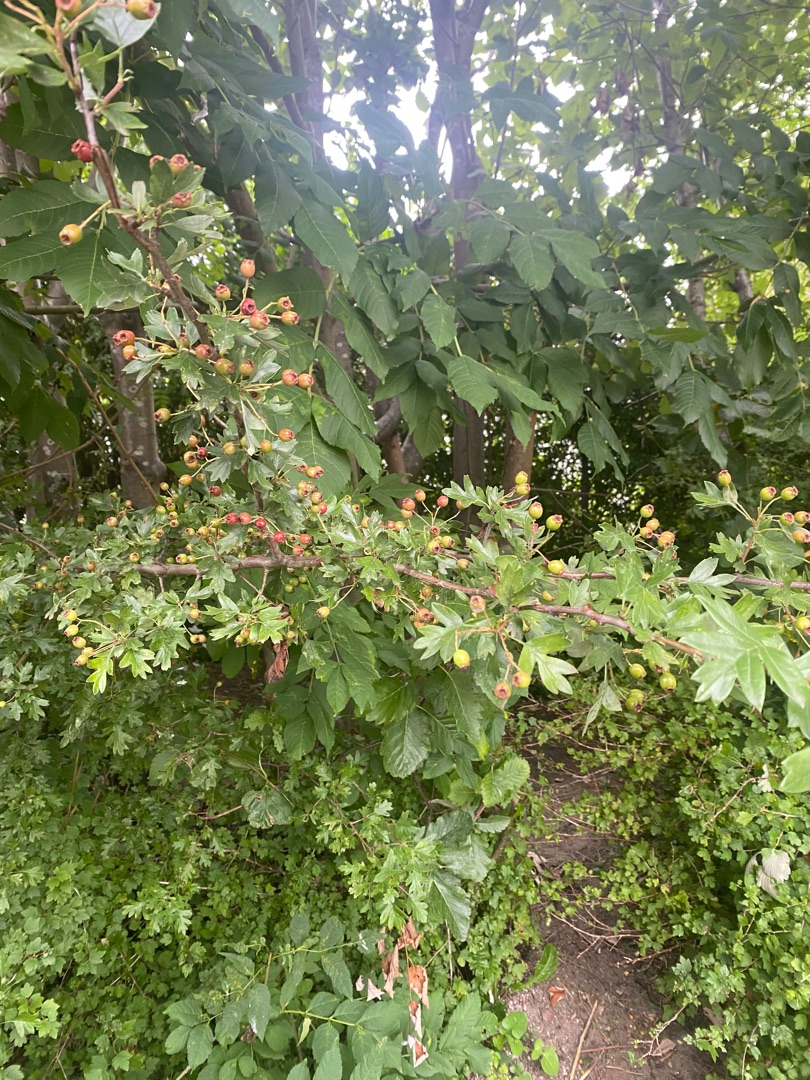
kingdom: Plantae
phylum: Tracheophyta
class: Magnoliopsida
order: Rosales
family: Rosaceae
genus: Crataegus
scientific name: Crataegus monogyna
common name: Engriflet hvidtjørn
